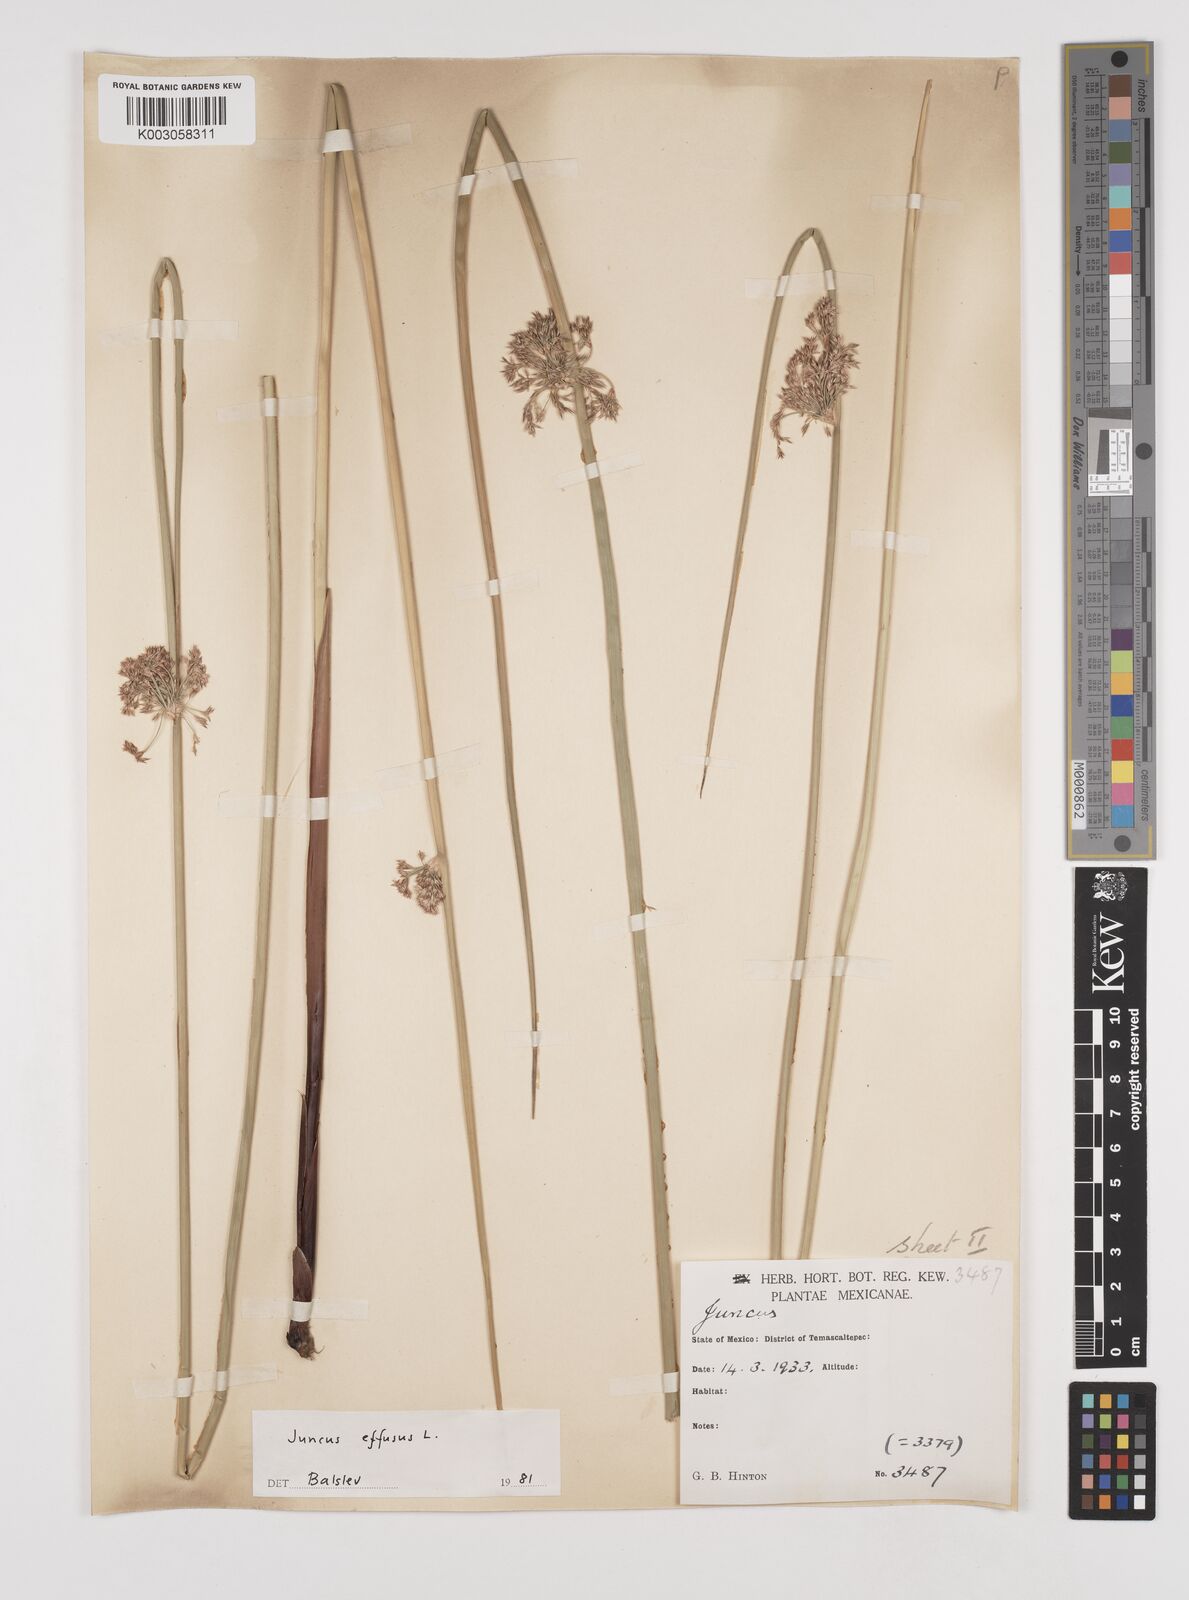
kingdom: Plantae
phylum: Tracheophyta
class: Liliopsida
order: Poales
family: Juncaceae
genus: Juncus
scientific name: Juncus effusus
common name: Soft rush
